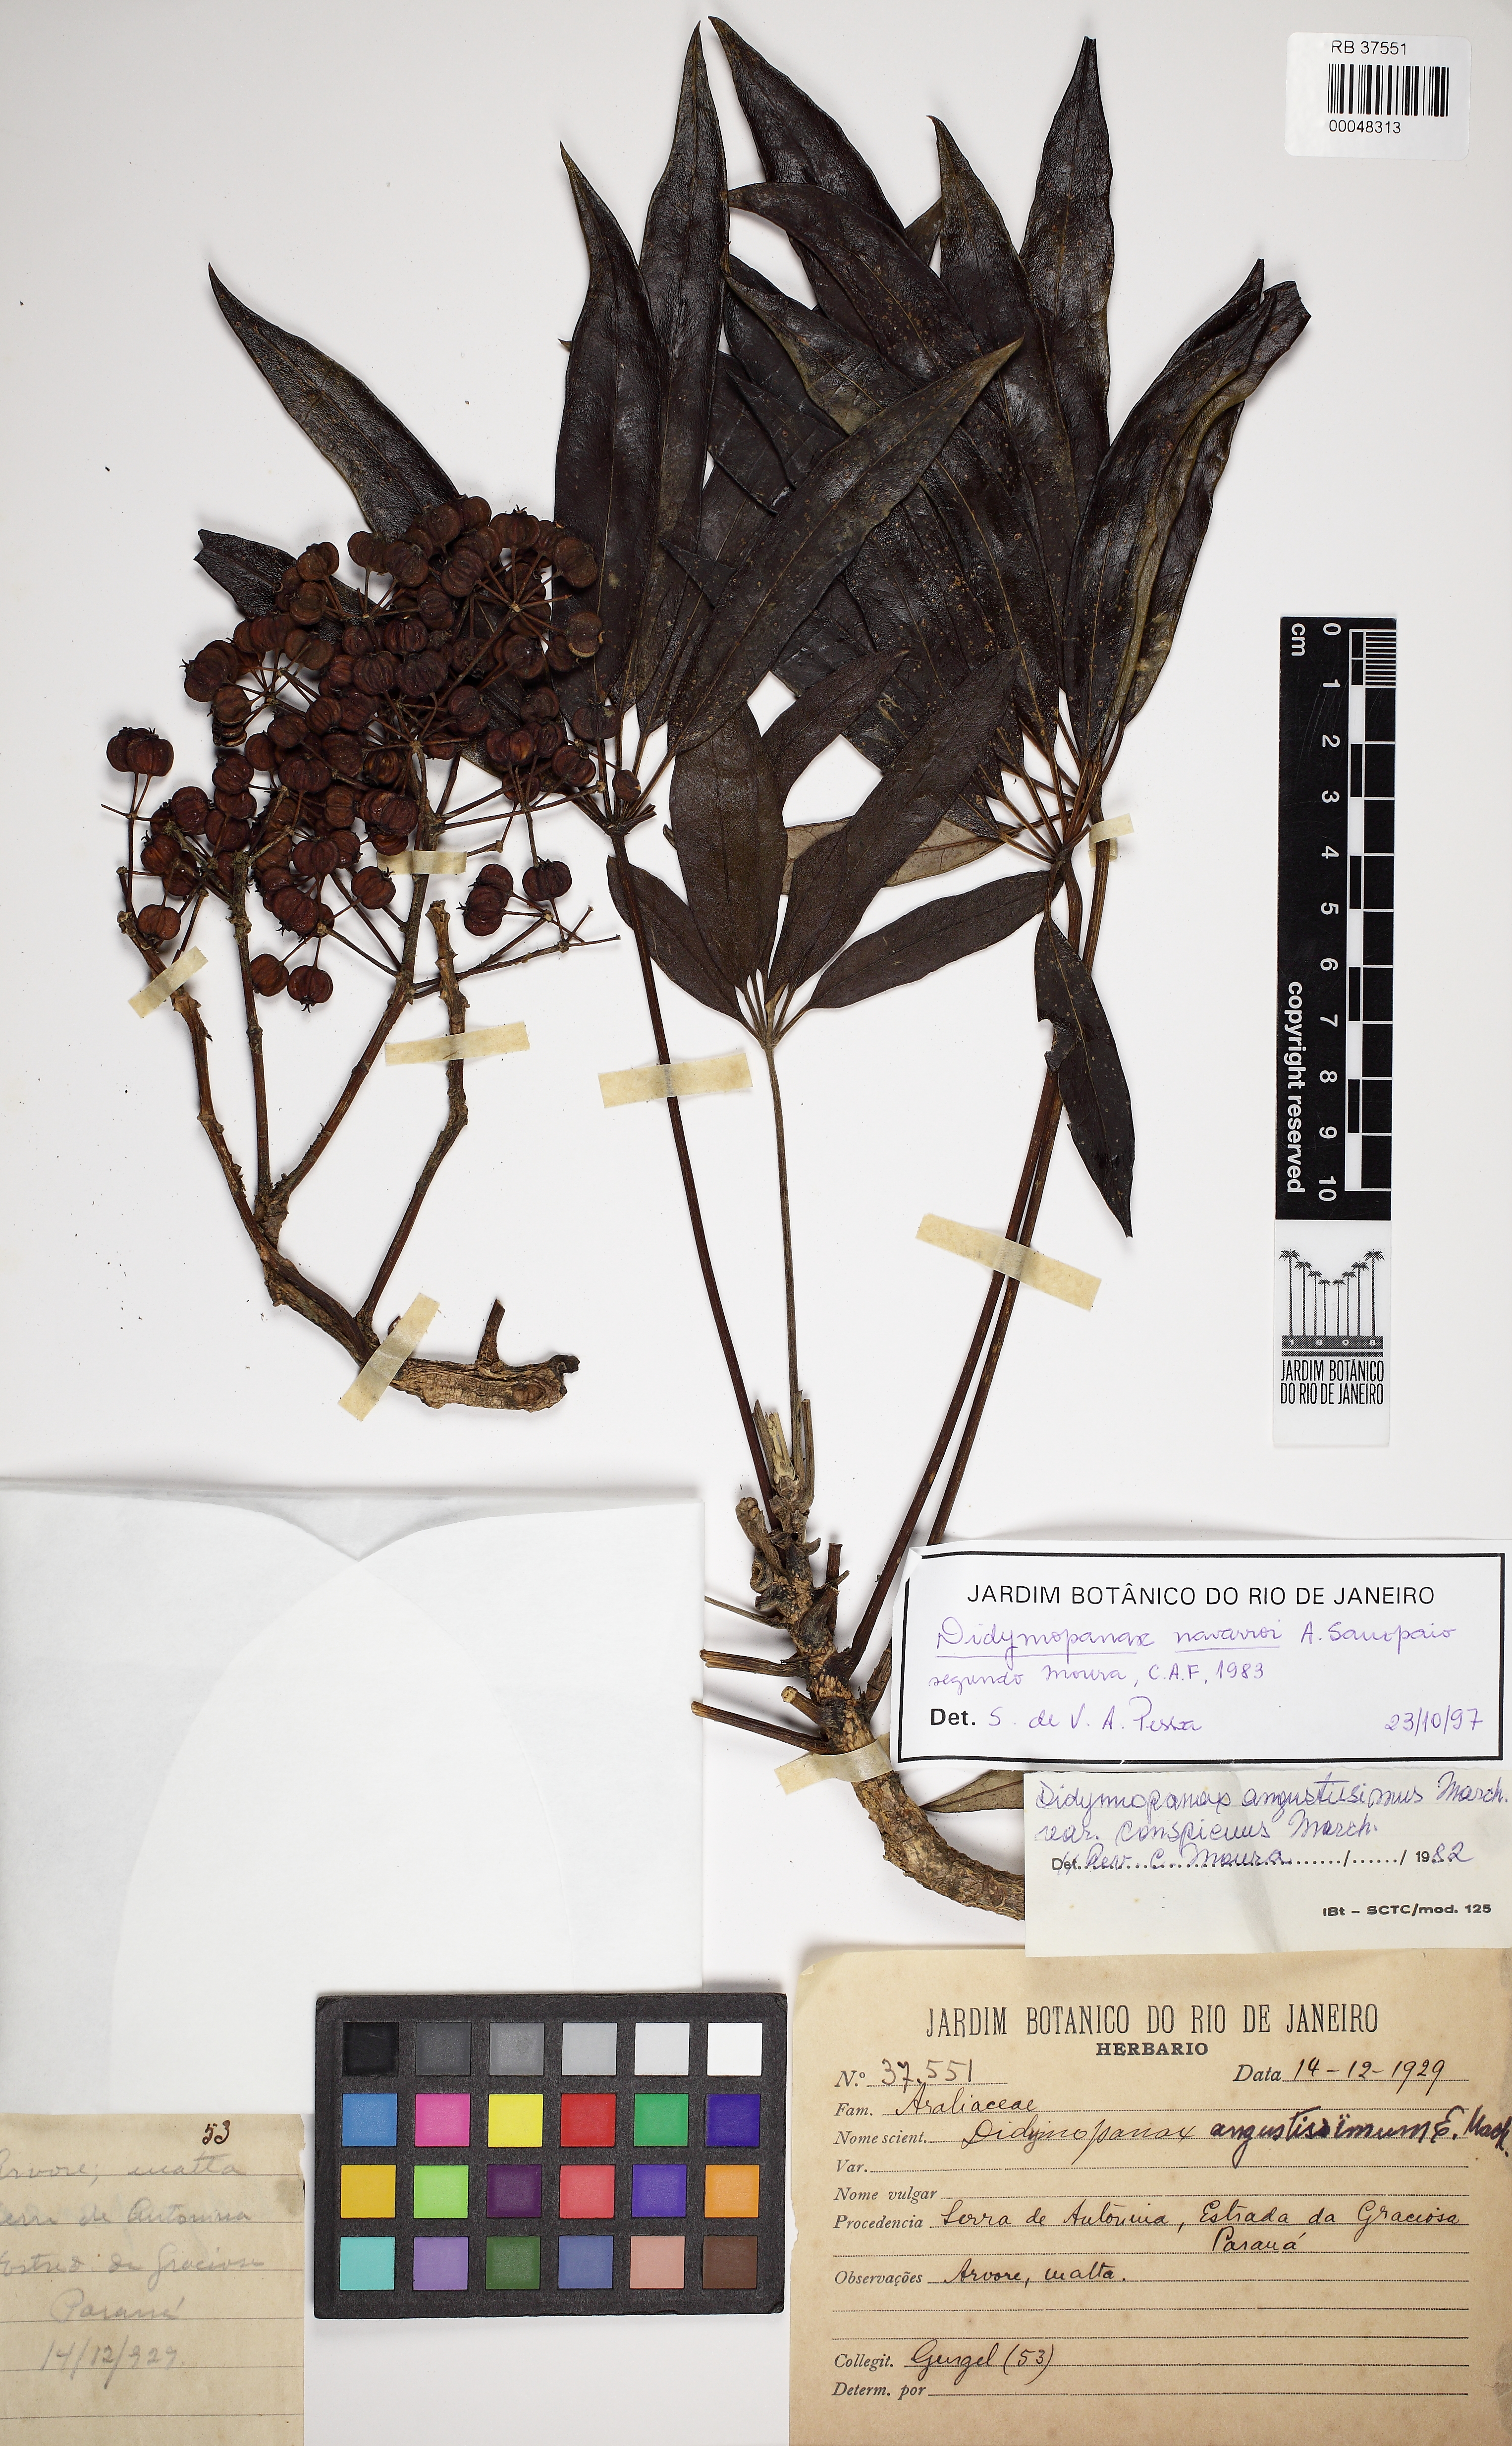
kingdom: Plantae
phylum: Tracheophyta
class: Magnoliopsida
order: Apiales
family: Araliaceae
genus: Didymopanax
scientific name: Didymopanax angustissimus
